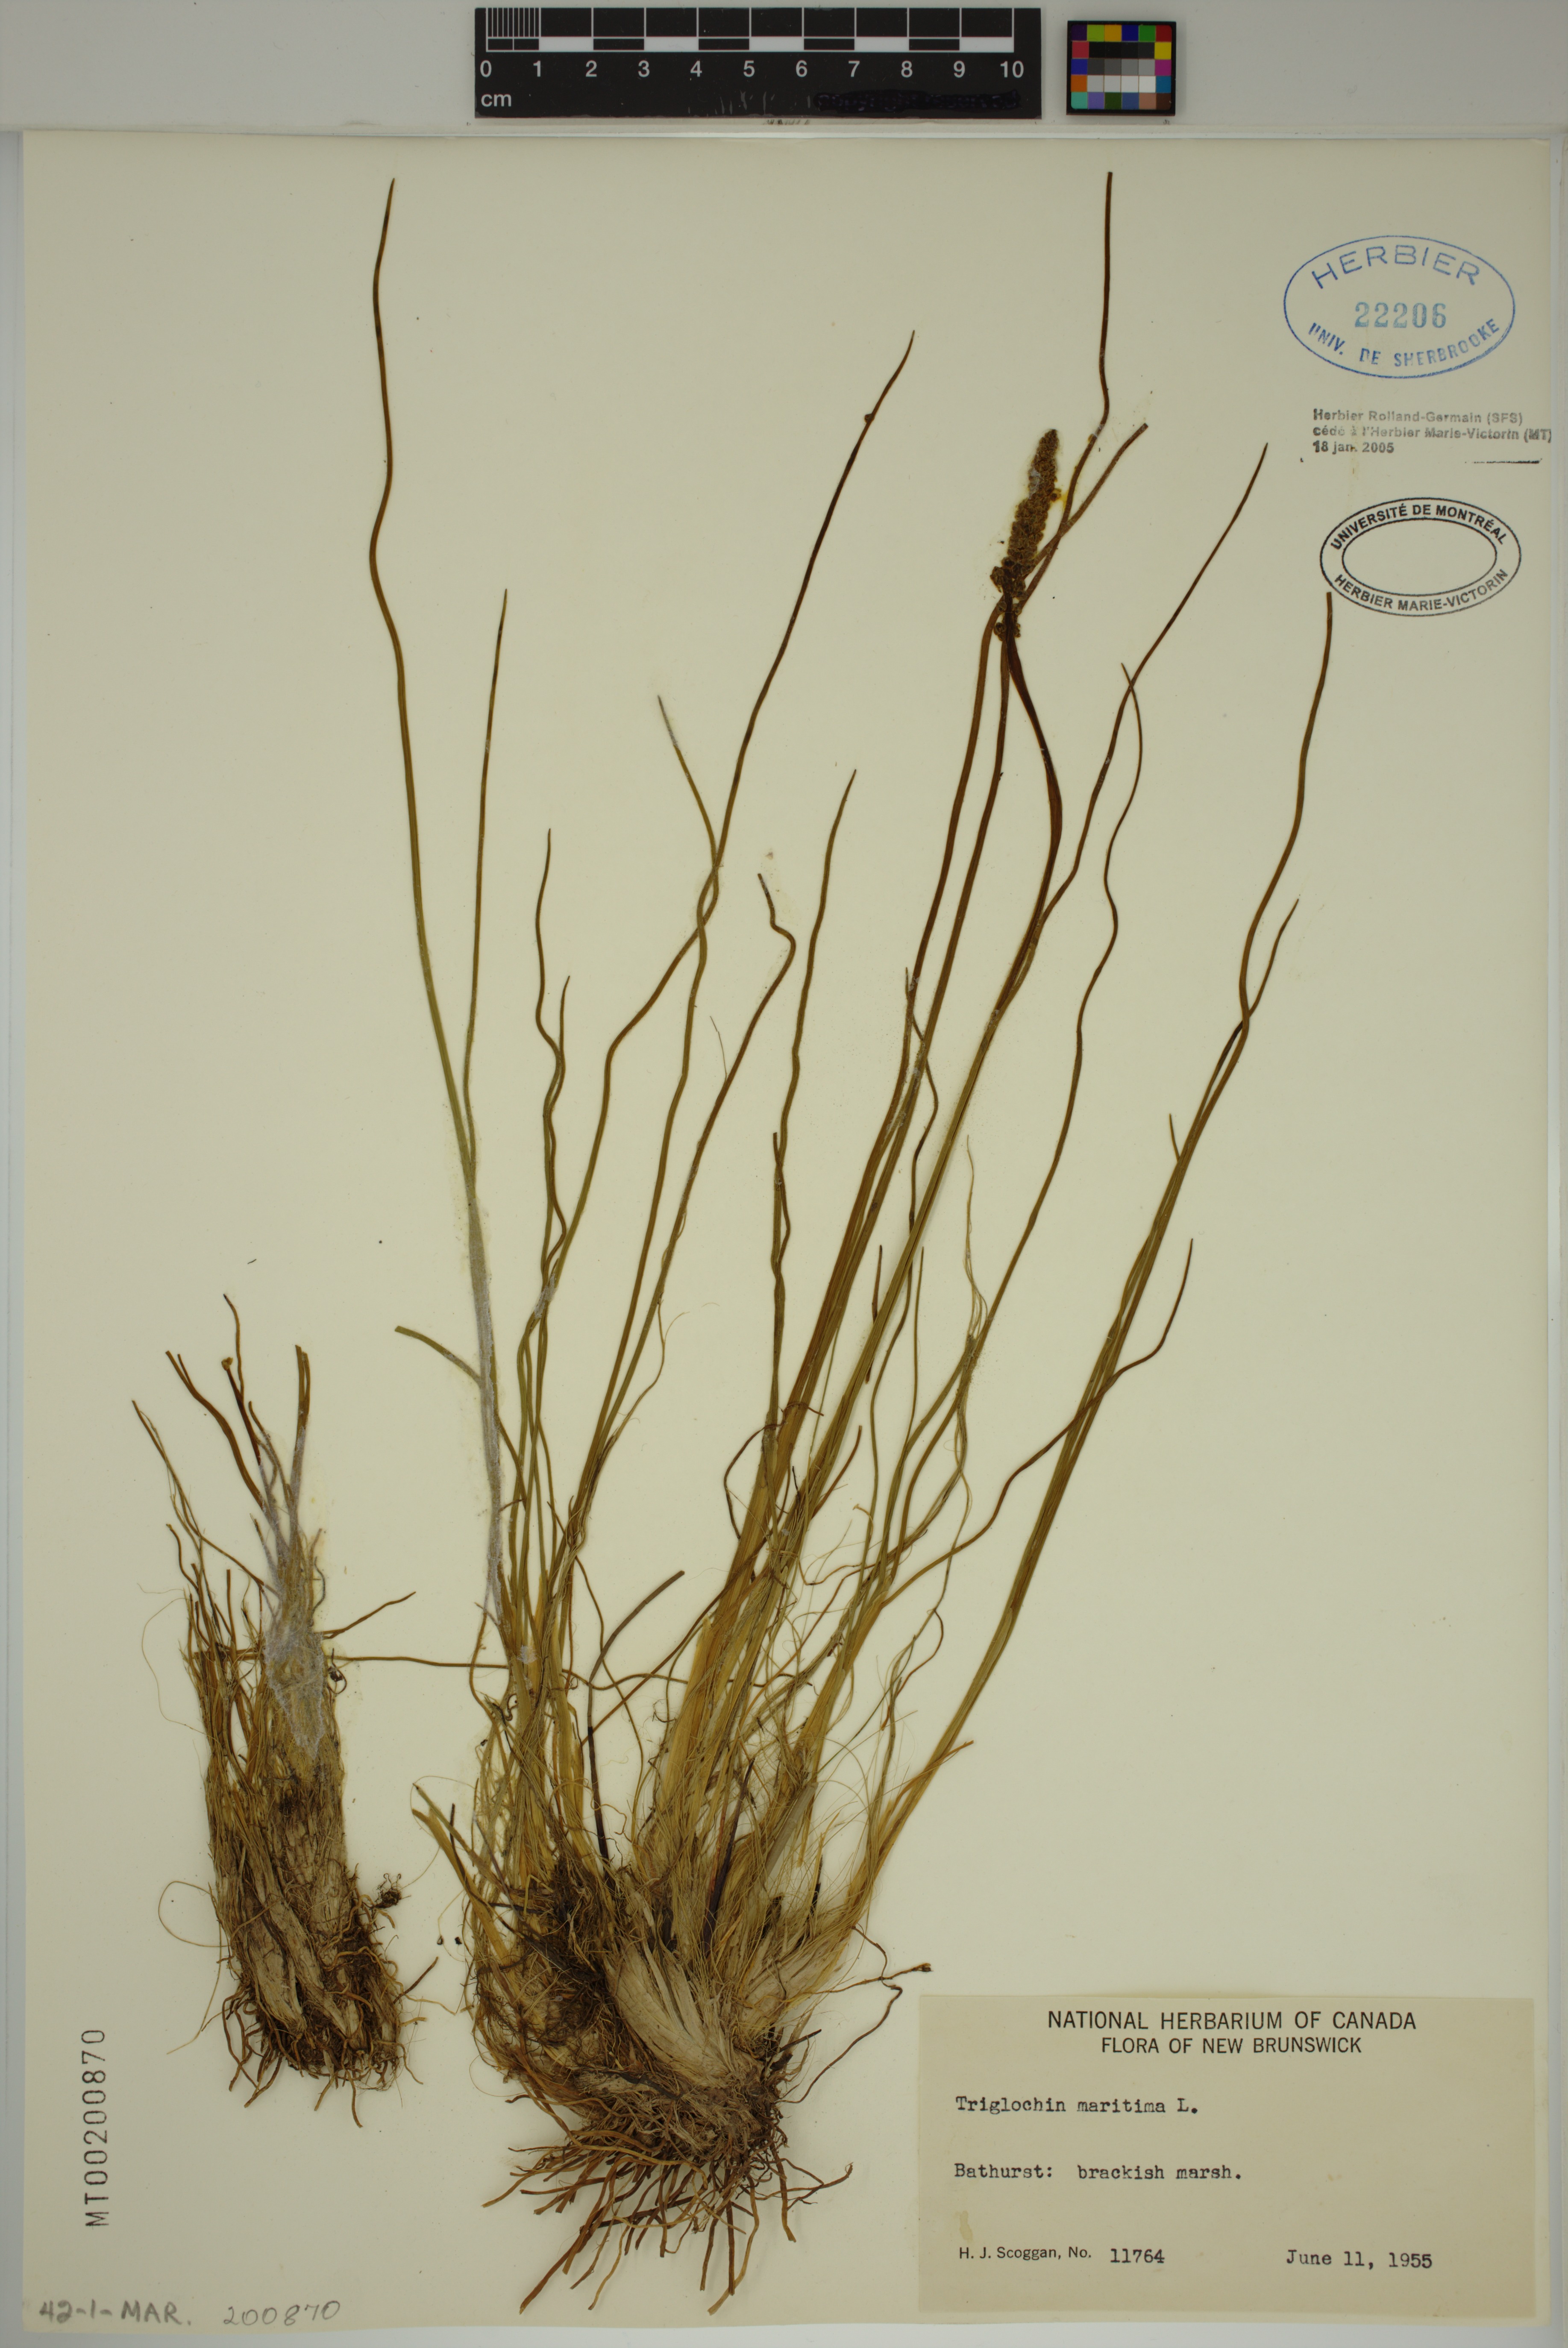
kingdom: Plantae
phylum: Tracheophyta
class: Liliopsida
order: Alismatales
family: Juncaginaceae
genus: Triglochin
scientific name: Triglochin maritima
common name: Sea arrowgrass
